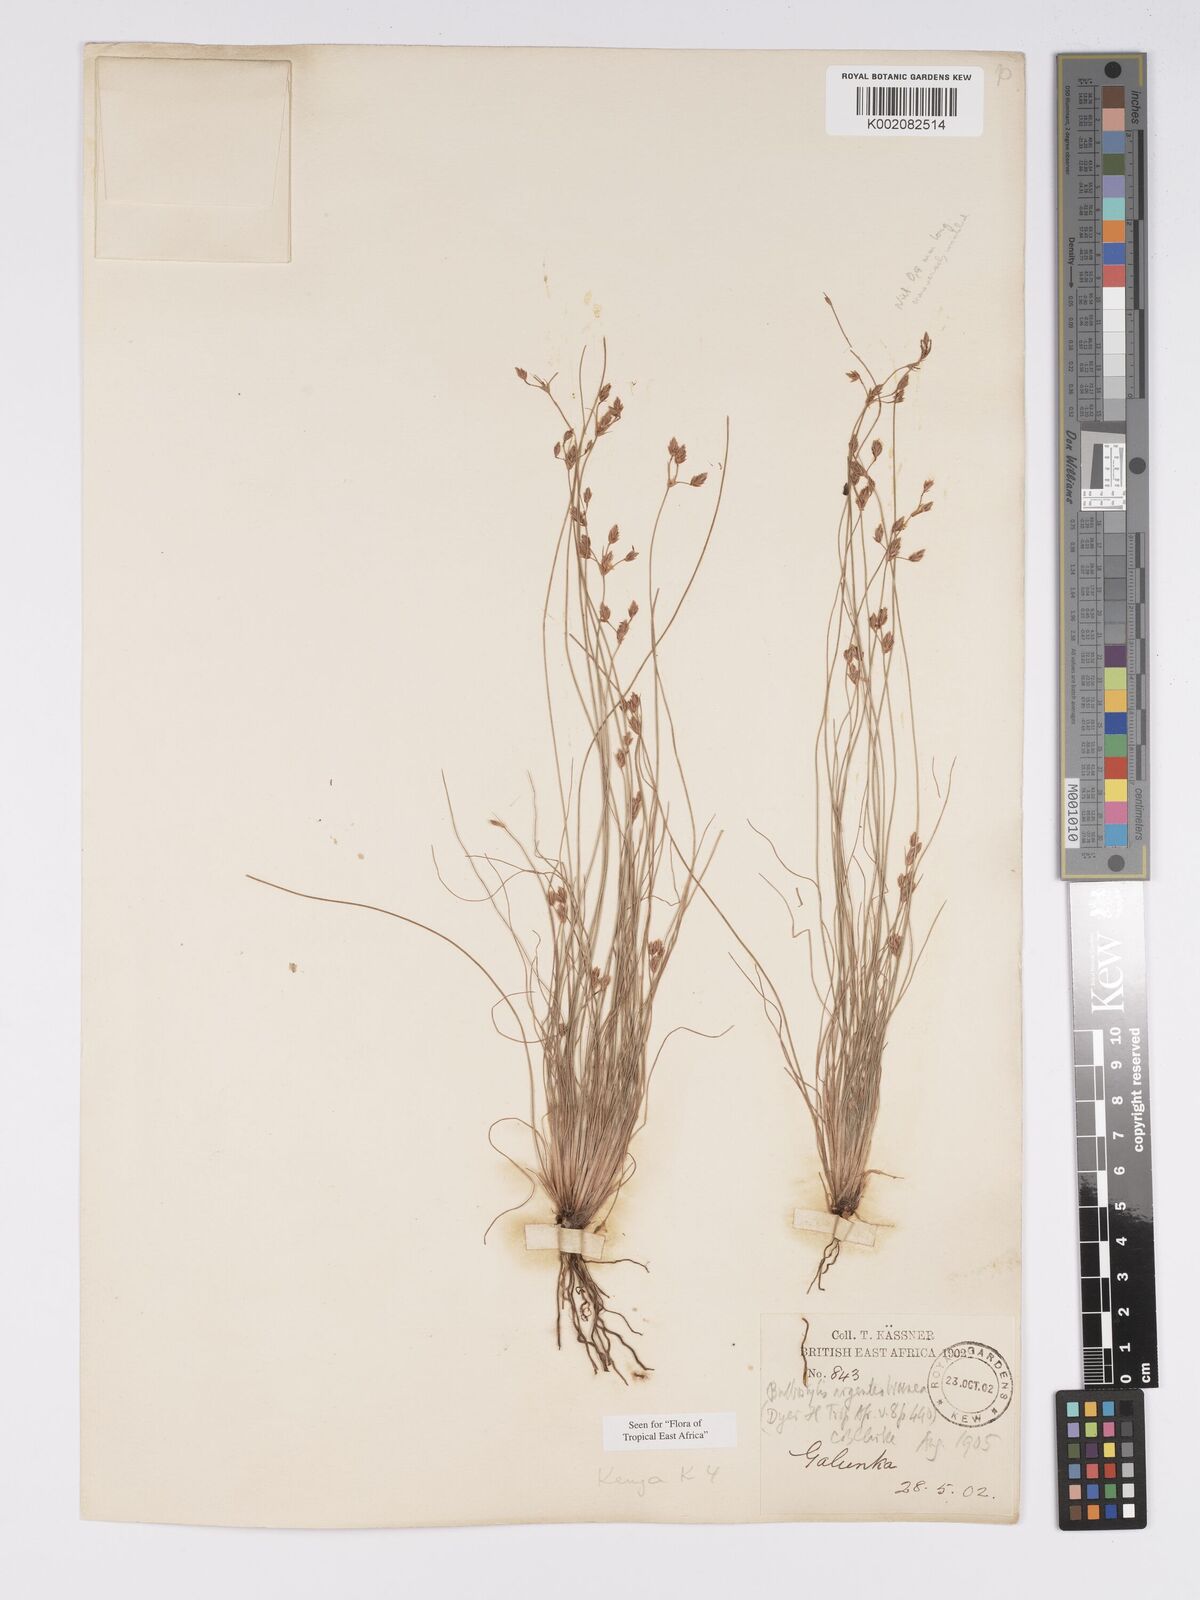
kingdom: Plantae
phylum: Tracheophyta
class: Liliopsida
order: Poales
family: Cyperaceae
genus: Bulbostylis
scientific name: Bulbostylis argenteobrunea
